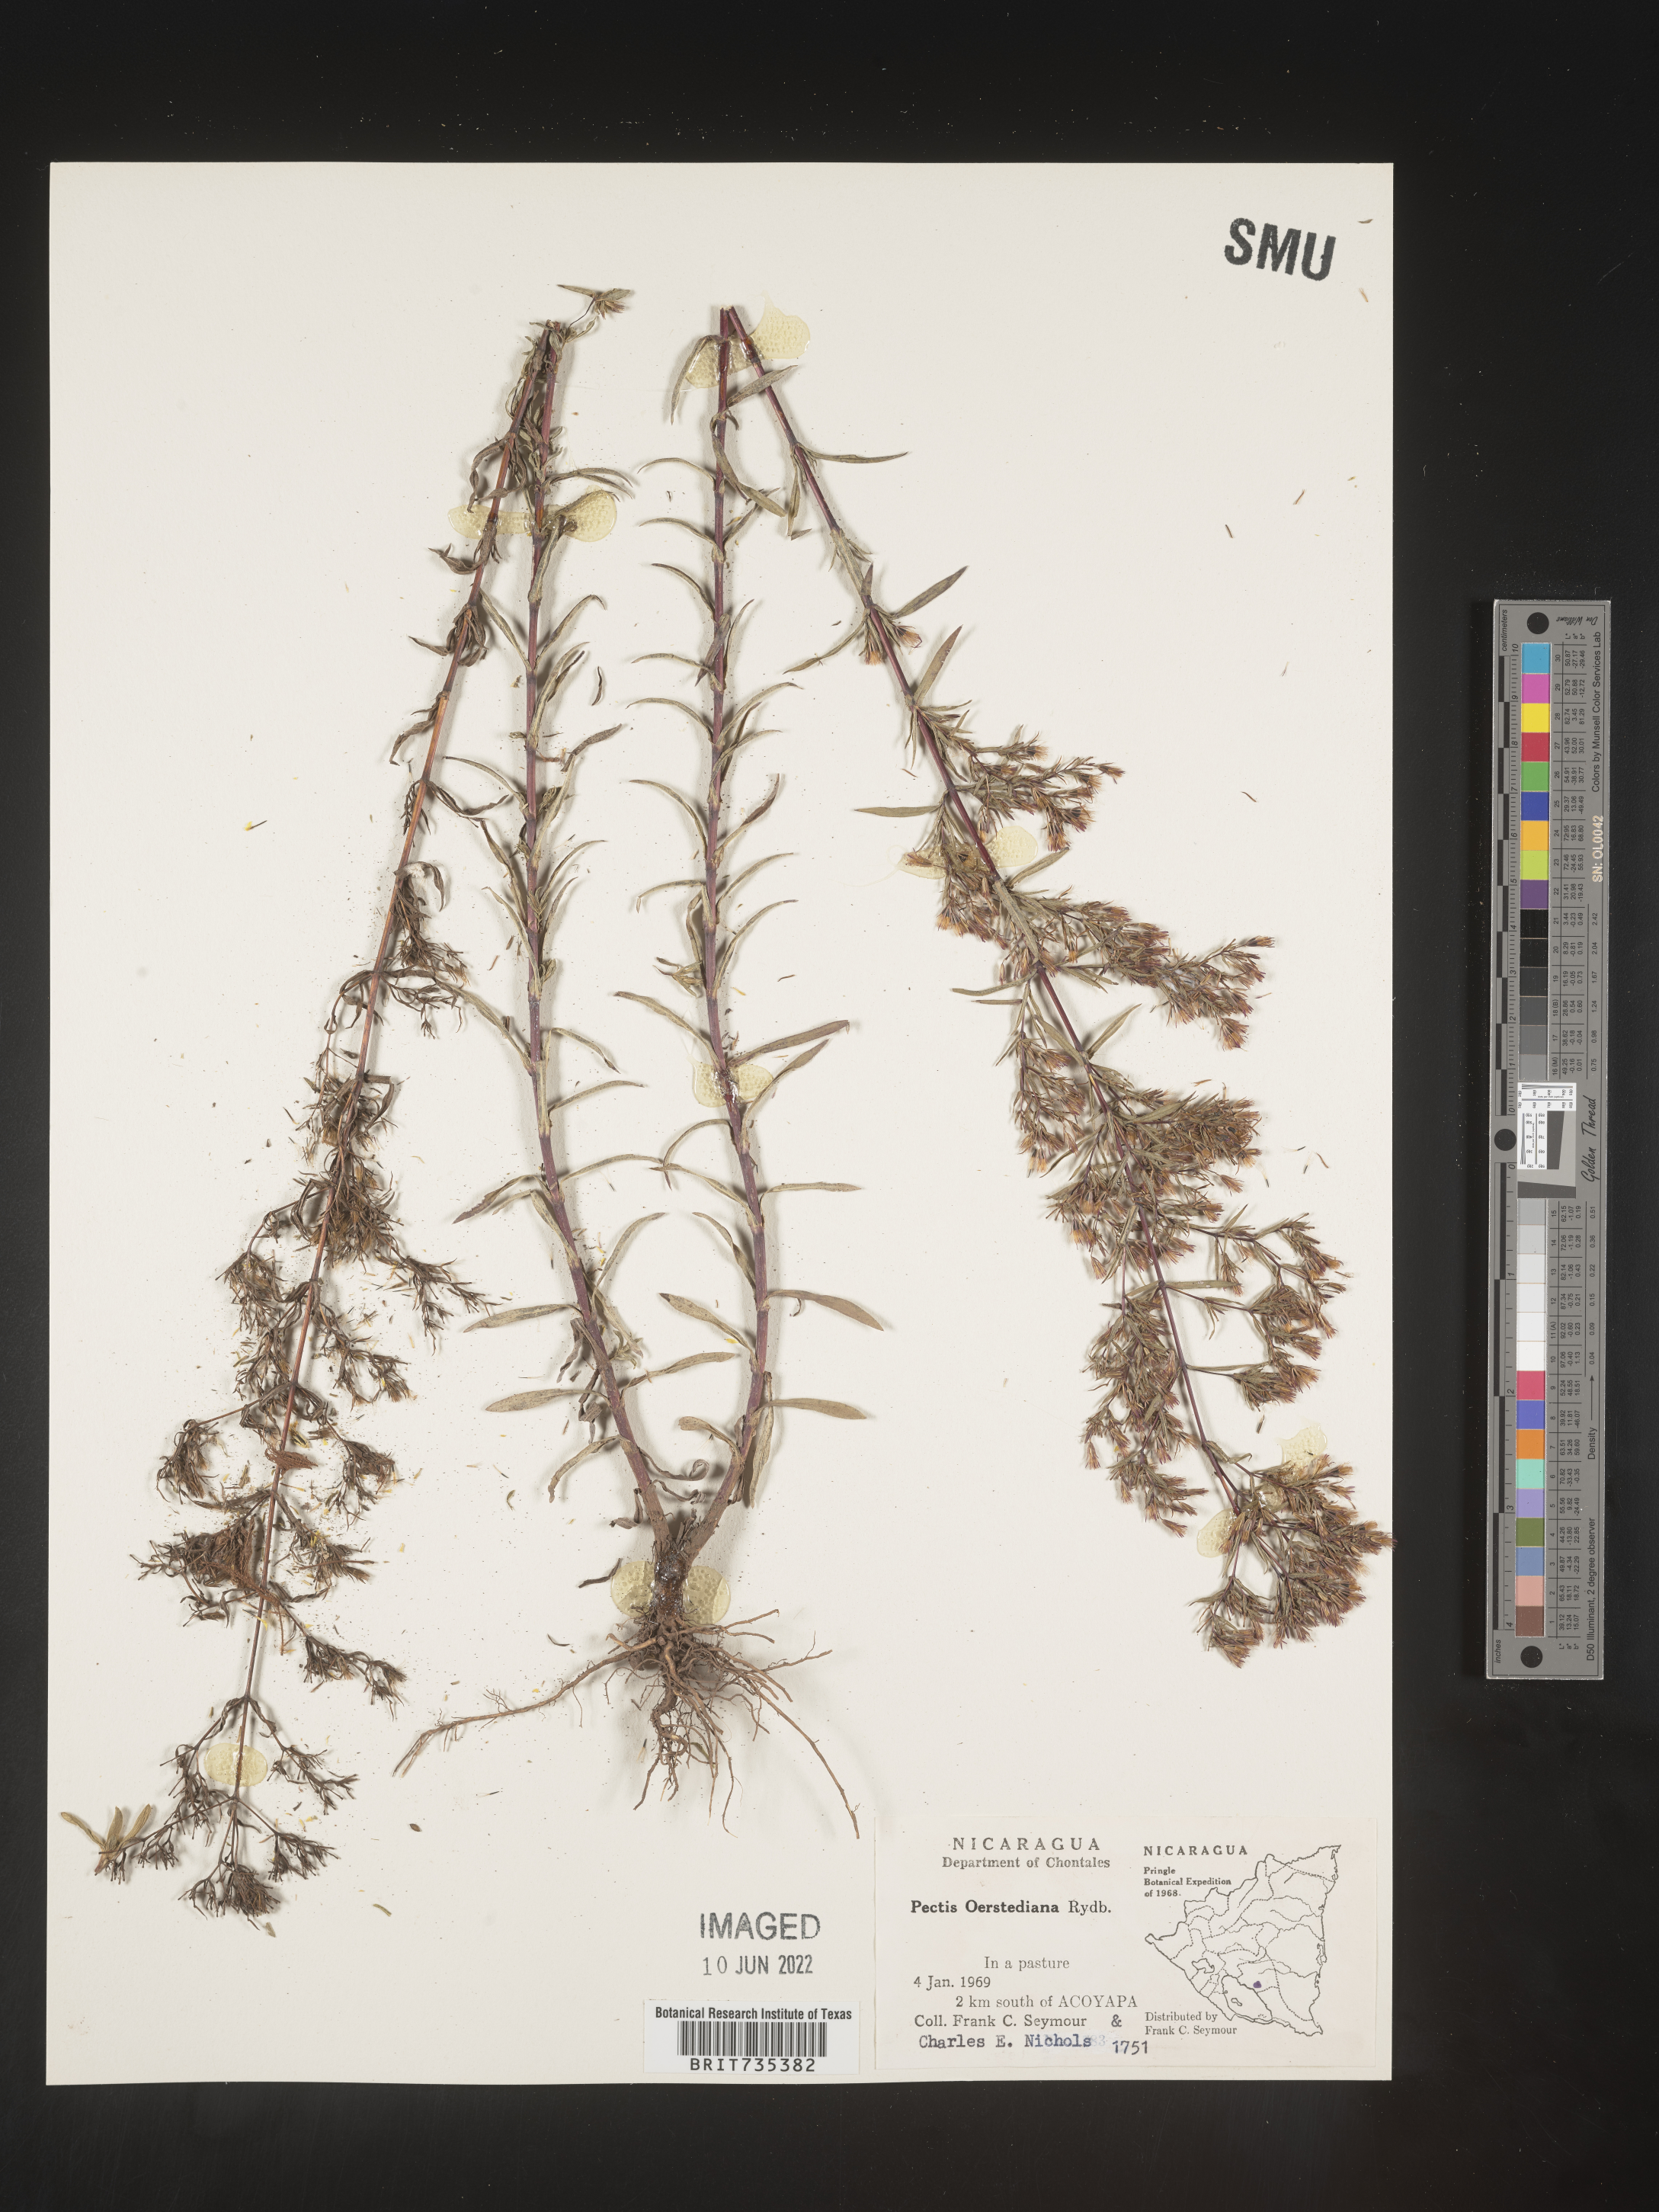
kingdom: Plantae
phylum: Tracheophyta
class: Magnoliopsida
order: Asterales
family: Asteraceae
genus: Pectis
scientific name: Pectis
